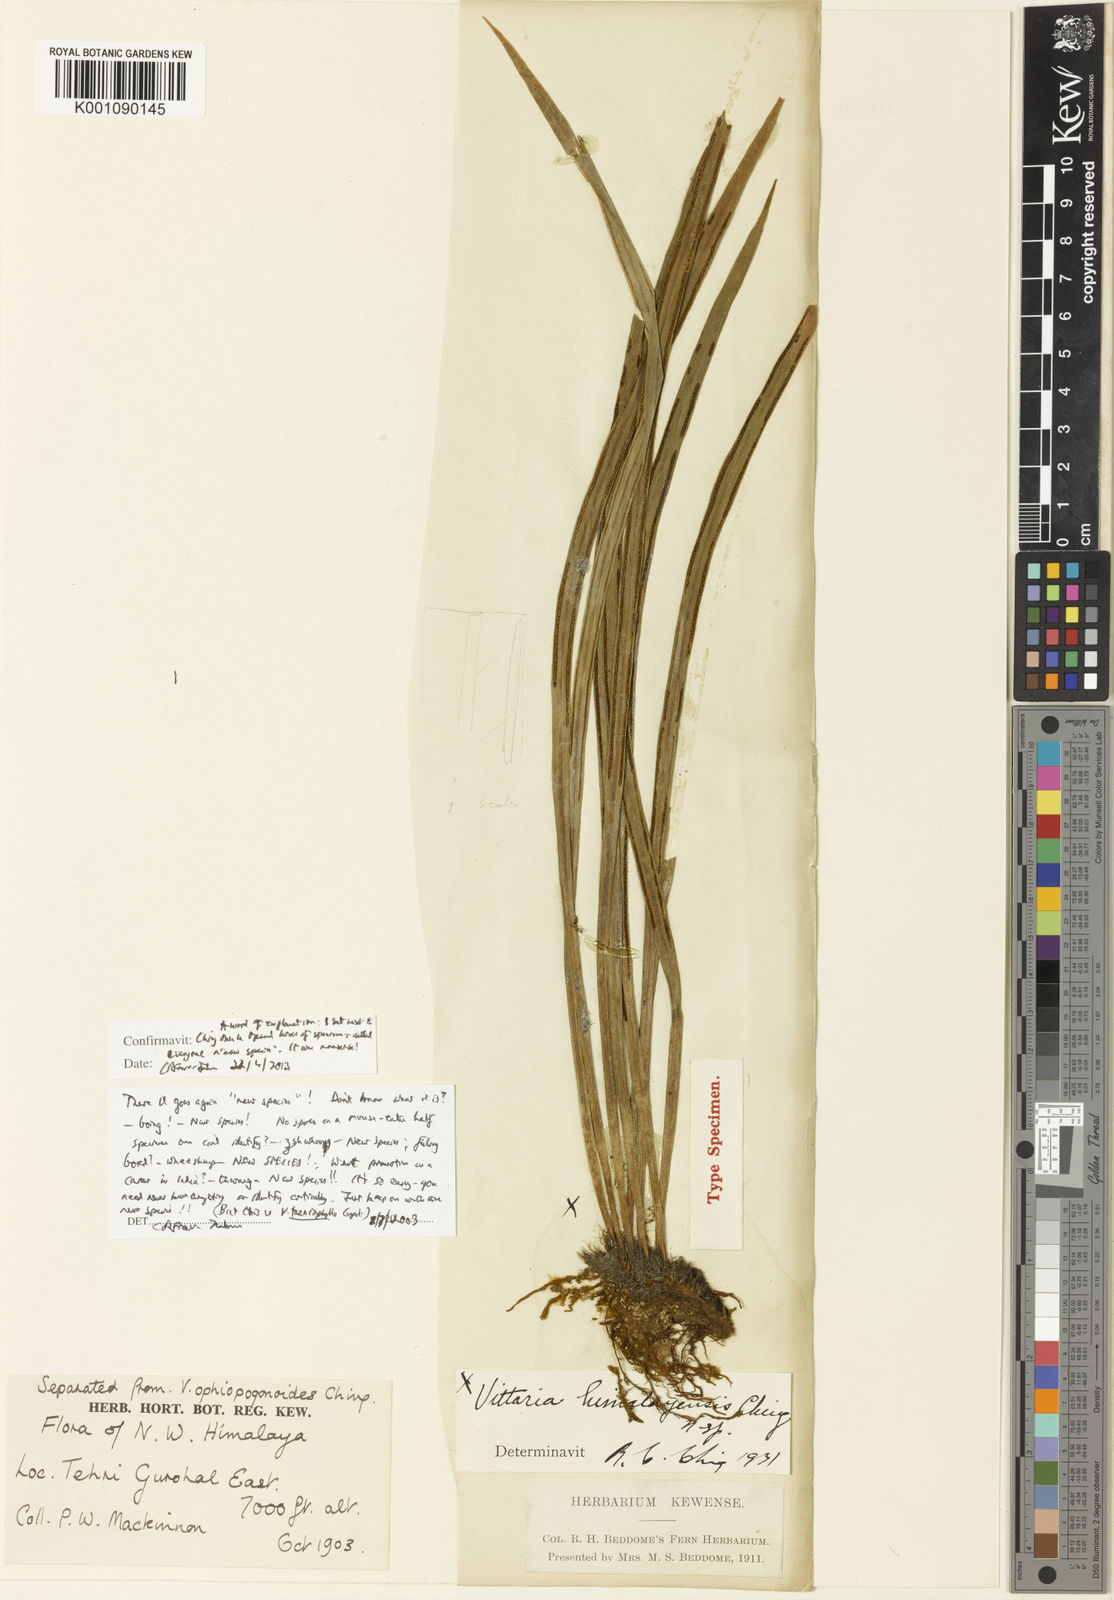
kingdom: Plantae
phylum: Tracheophyta
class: Polypodiopsida
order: Polypodiales
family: Pteridaceae
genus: Haplopteris
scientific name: Haplopteris taeniophylla
